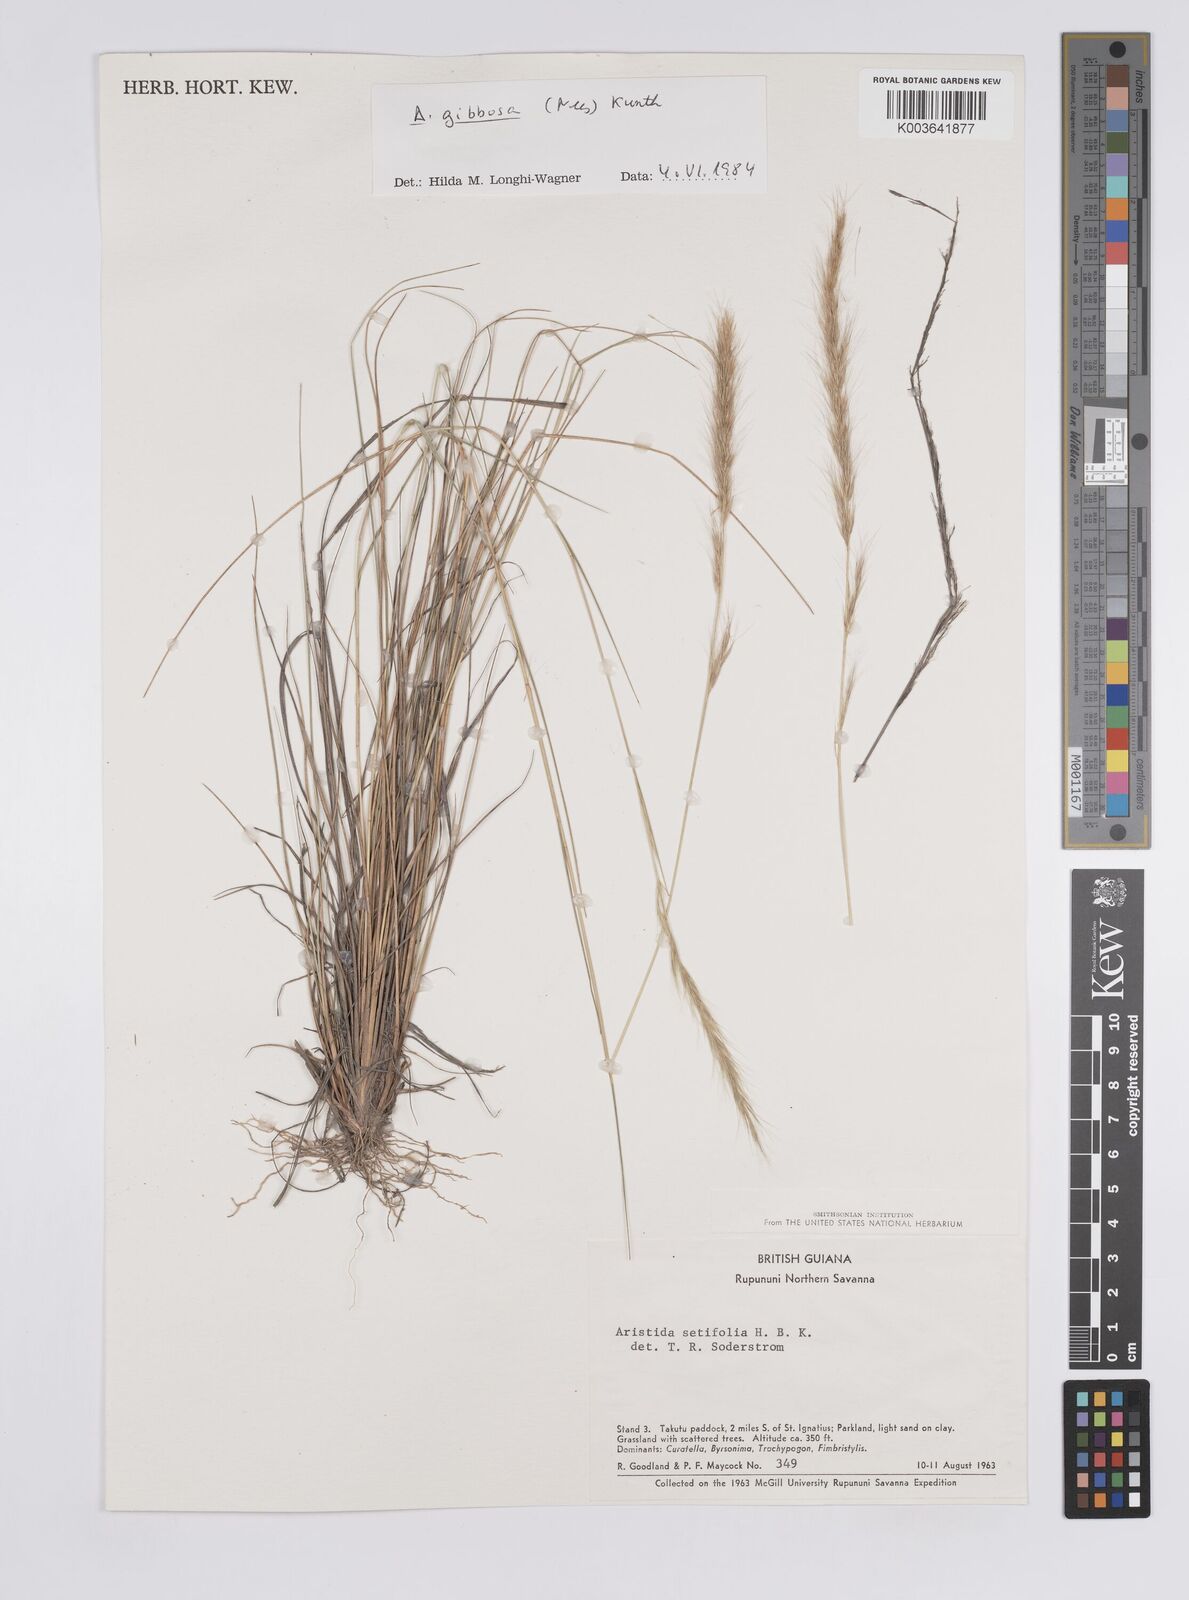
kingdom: Plantae
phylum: Tracheophyta
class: Liliopsida
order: Poales
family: Poaceae
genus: Aristida
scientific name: Aristida gibbosa
